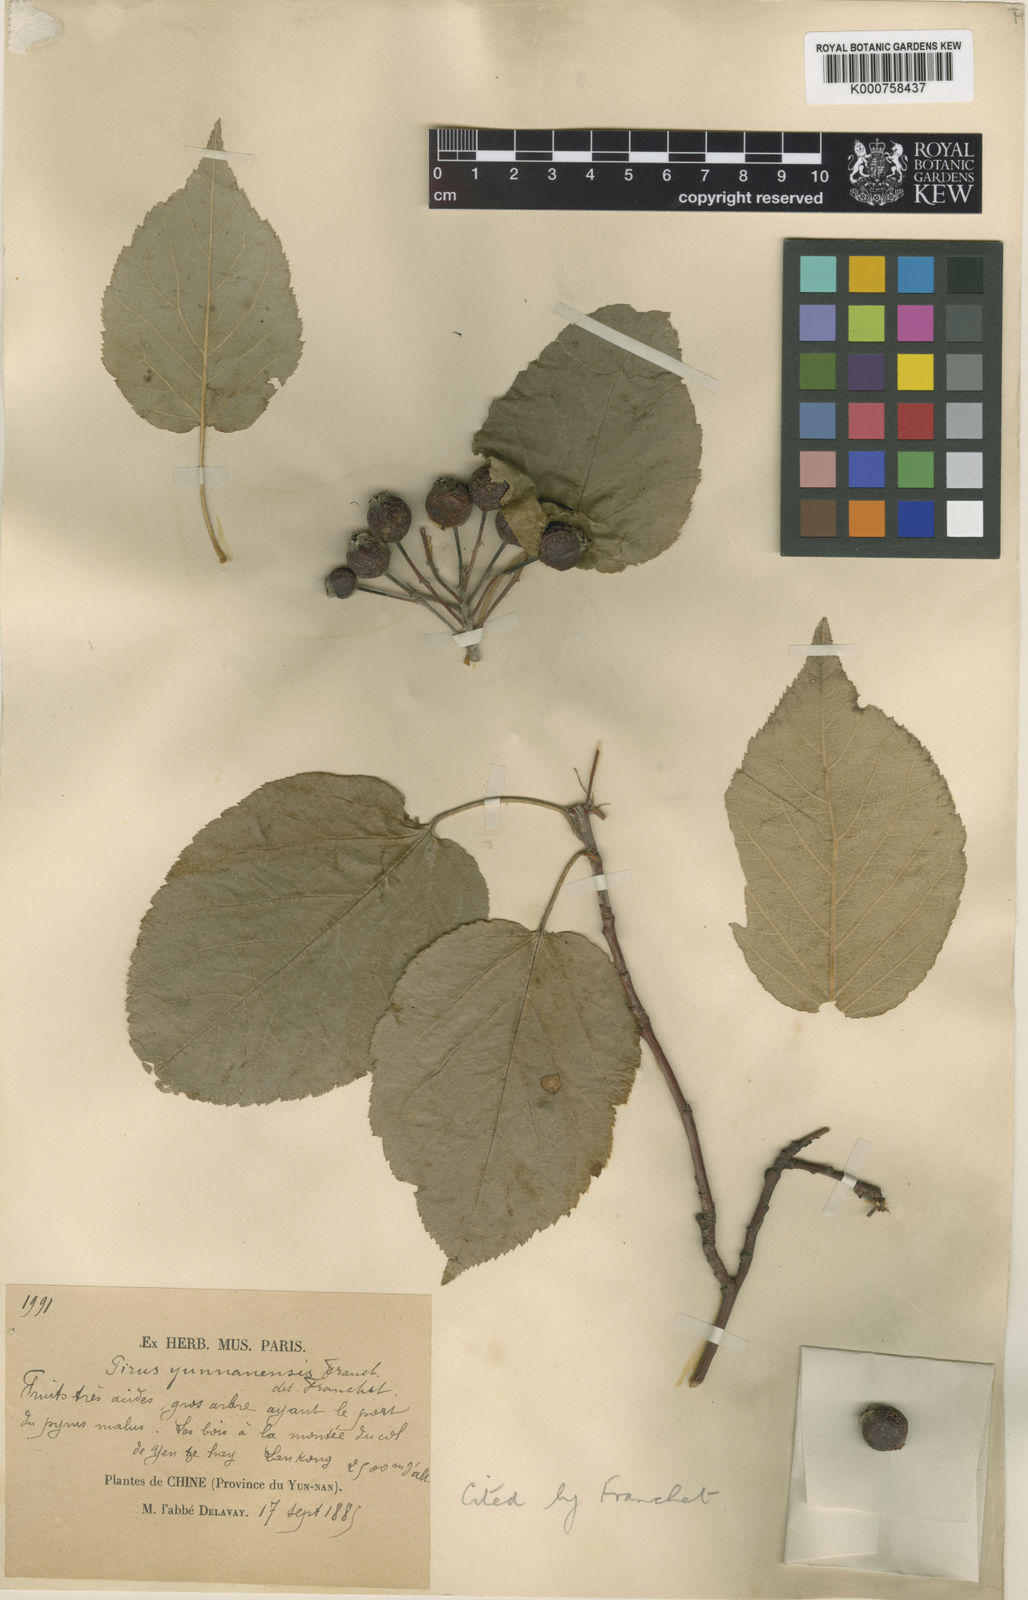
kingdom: Plantae
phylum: Tracheophyta
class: Magnoliopsida
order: Rosales
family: Rosaceae
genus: Malus
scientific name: Malus yunnanensis
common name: Yunnan crabapple
